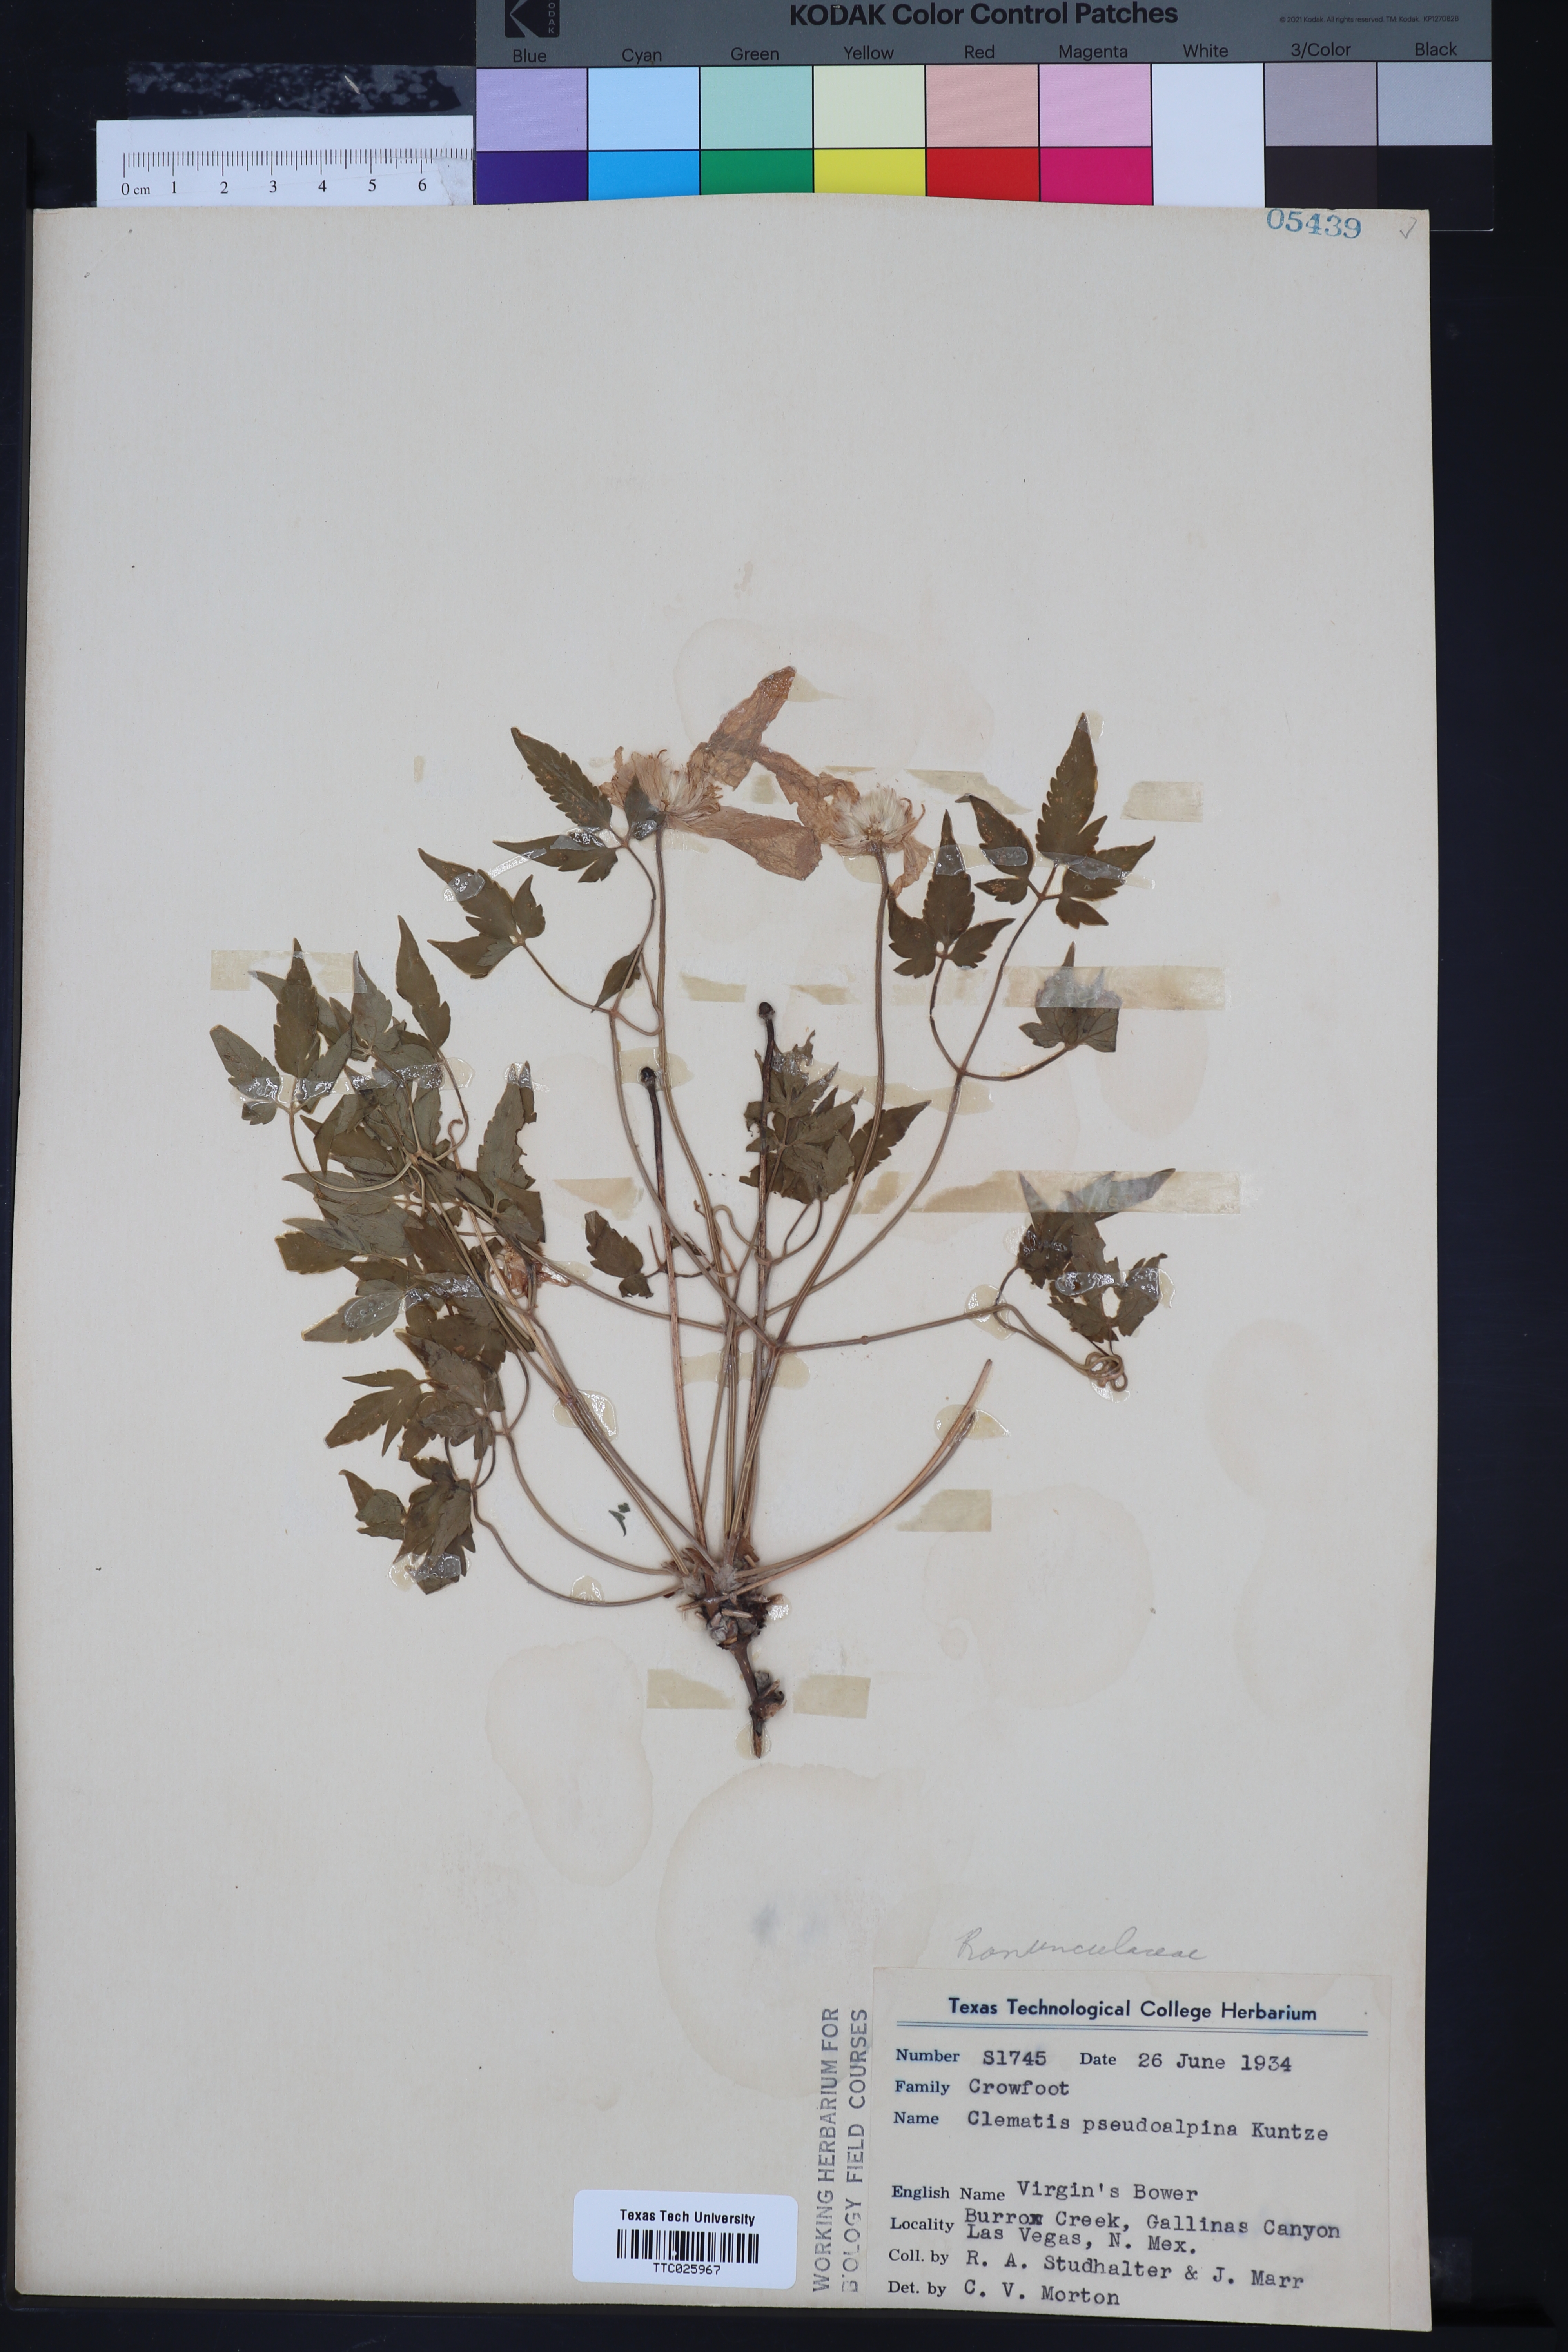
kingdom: Plantae
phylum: Tracheophyta
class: Magnoliopsida
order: Ranunculales
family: Ranunculaceae
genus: Clematis
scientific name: Clematis columbiana
